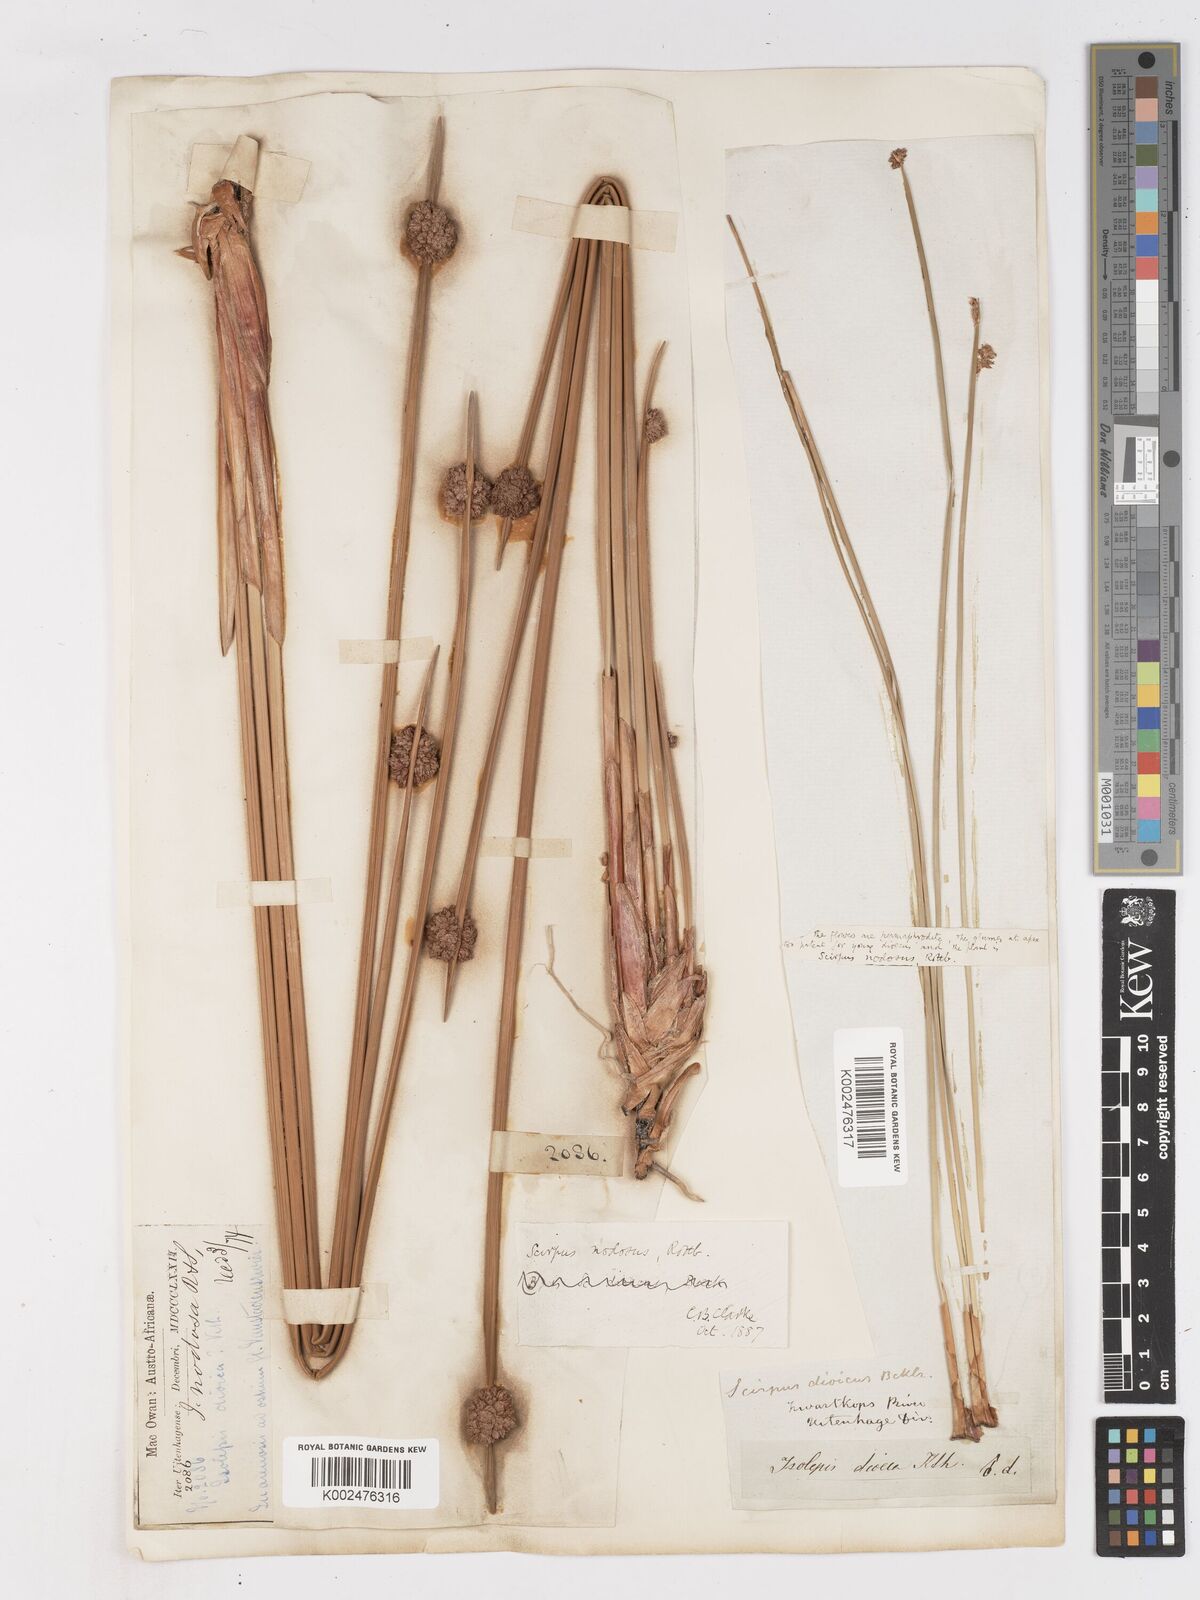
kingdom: Plantae
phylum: Tracheophyta
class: Liliopsida
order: Poales
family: Cyperaceae
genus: Ficinia
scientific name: Ficinia nodosa
